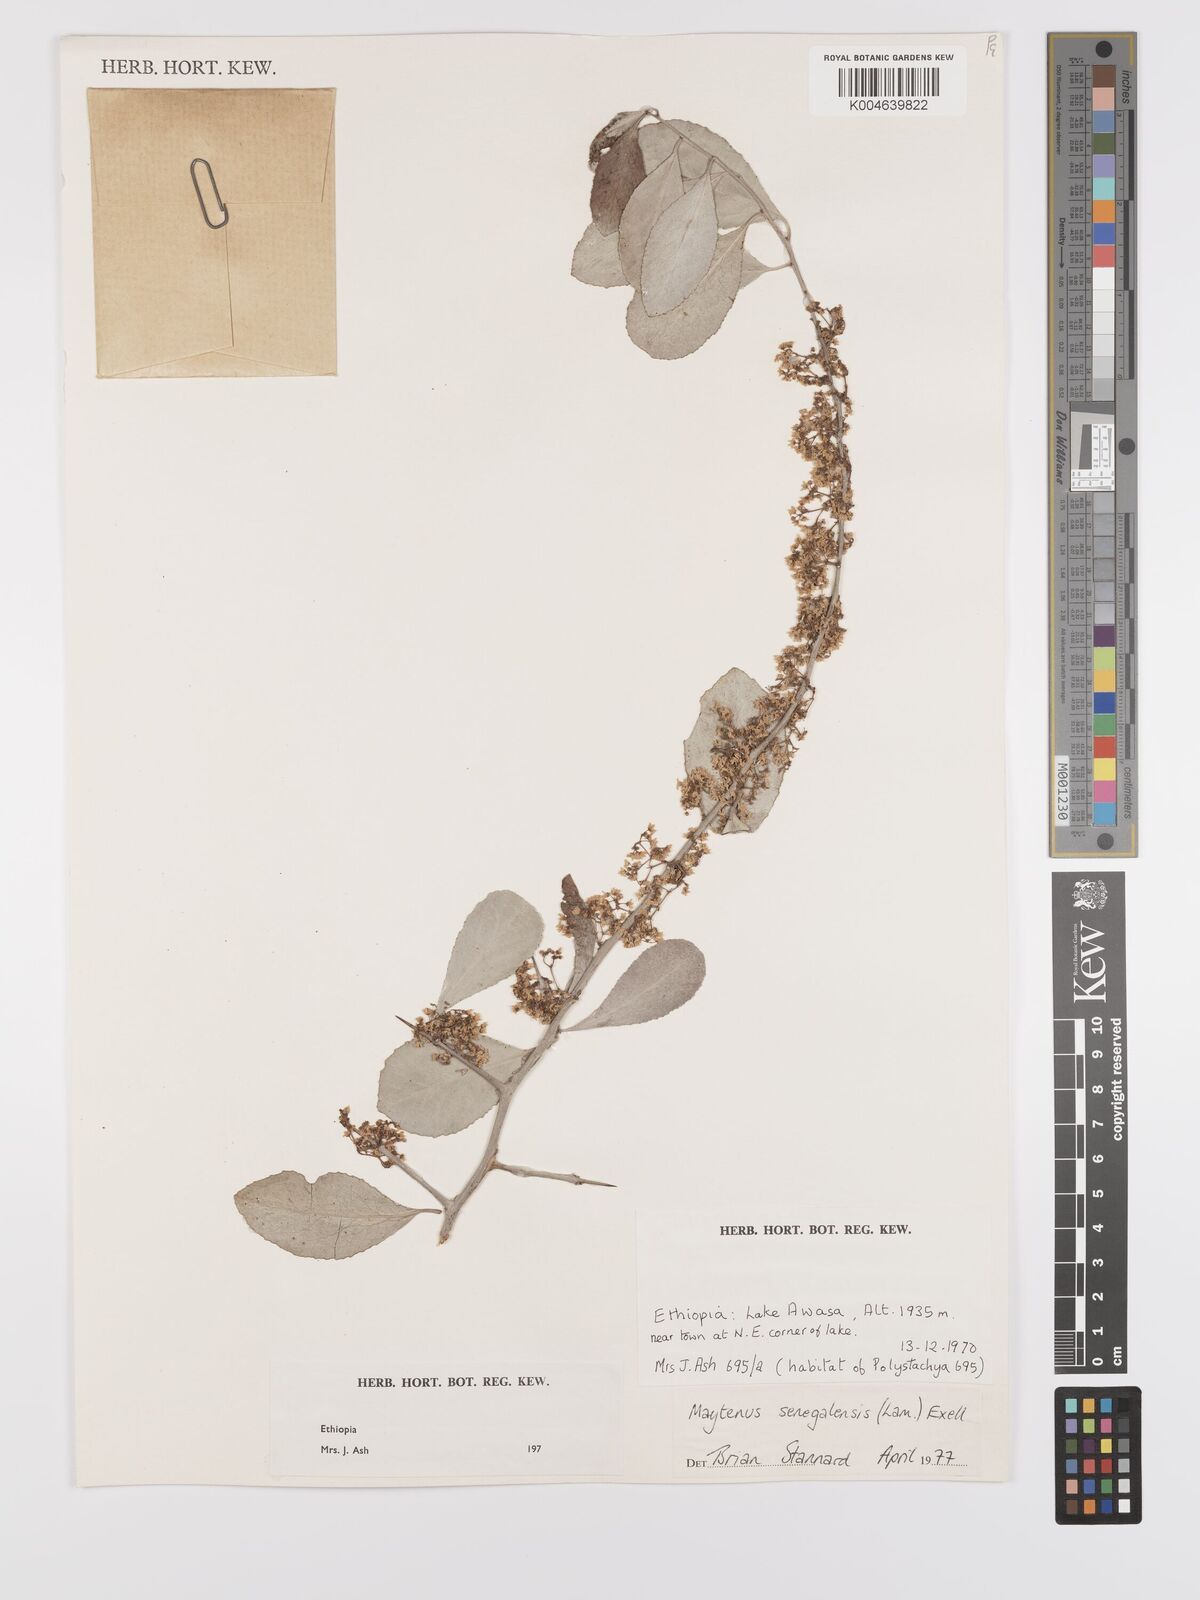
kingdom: Plantae
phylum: Tracheophyta
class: Magnoliopsida
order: Celastrales
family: Celastraceae
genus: Gymnosporia
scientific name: Gymnosporia senegalensis
